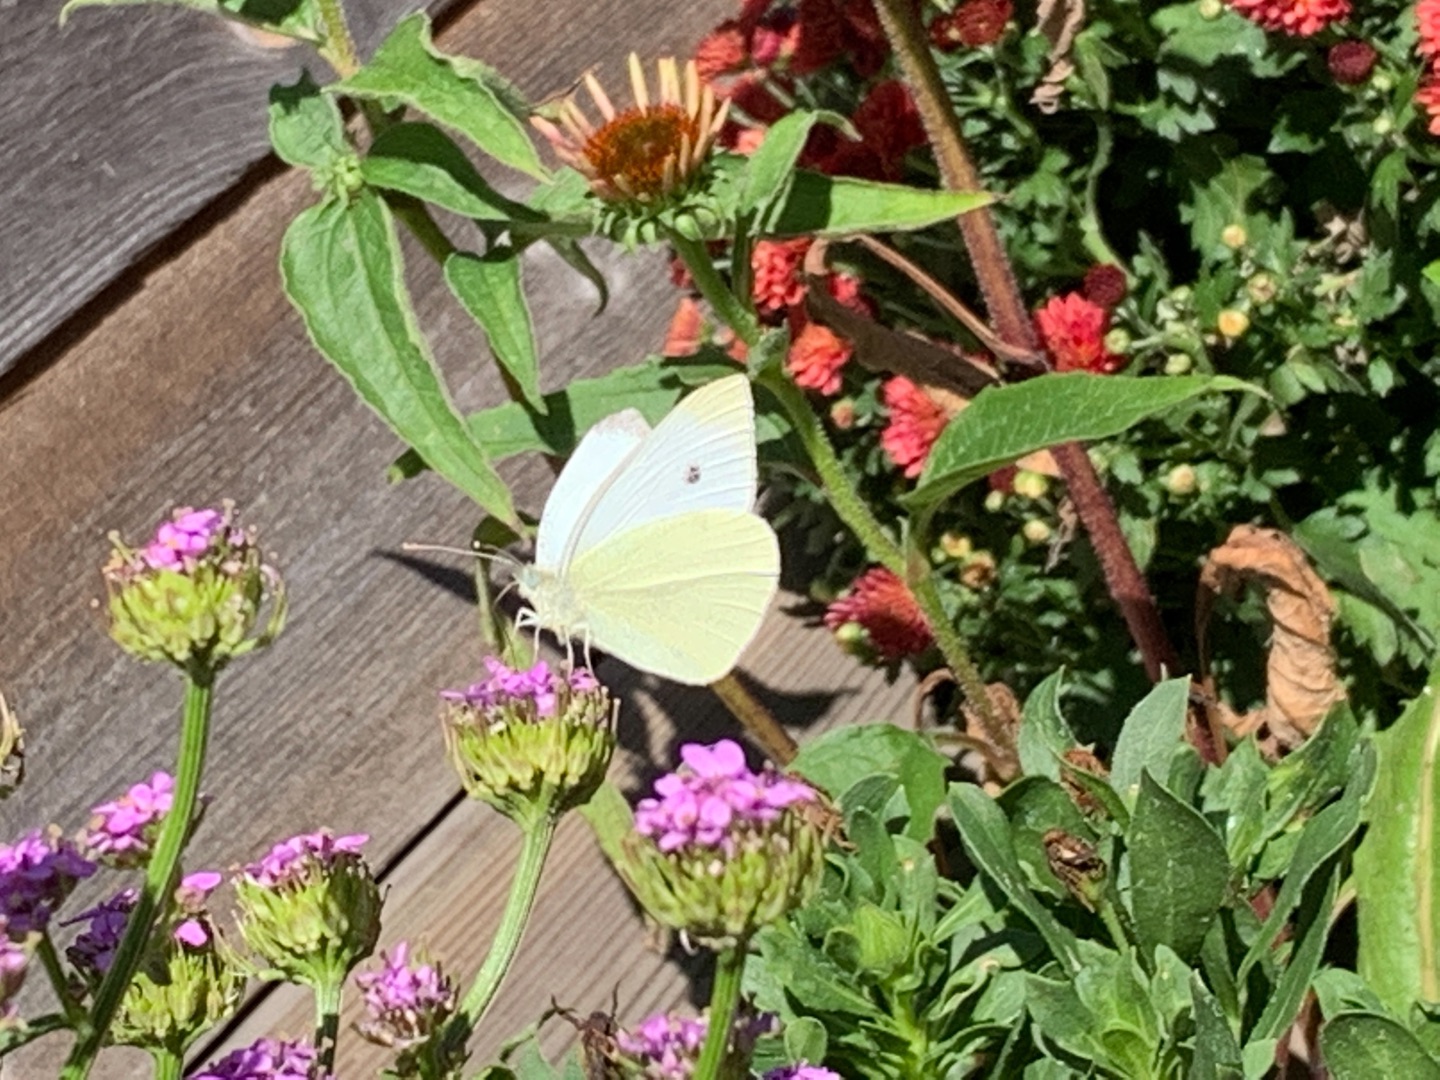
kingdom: Animalia
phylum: Arthropoda
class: Insecta
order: Lepidoptera
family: Pieridae
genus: Pieris
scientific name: Pieris rapae
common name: Lille kålsommerfugl
